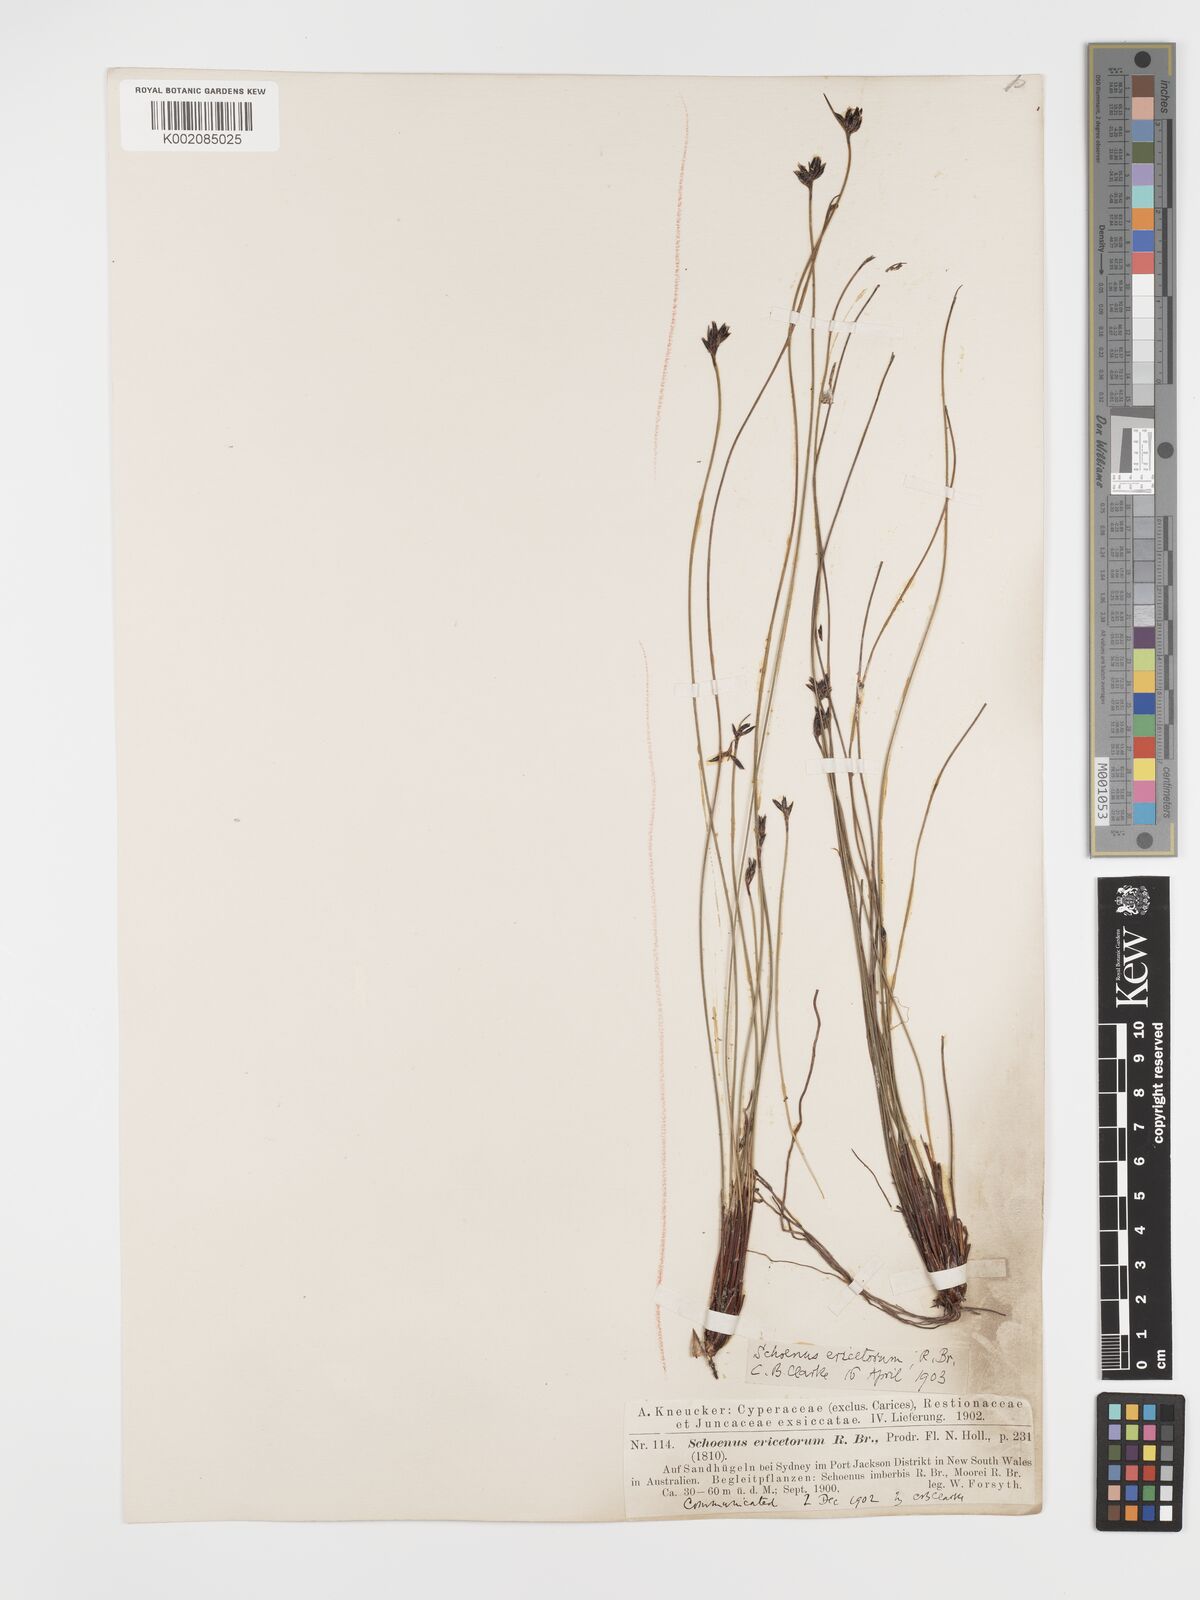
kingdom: Plantae
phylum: Tracheophyta
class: Liliopsida
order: Poales
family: Cyperaceae
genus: Schoenus
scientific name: Schoenus ericetorum
